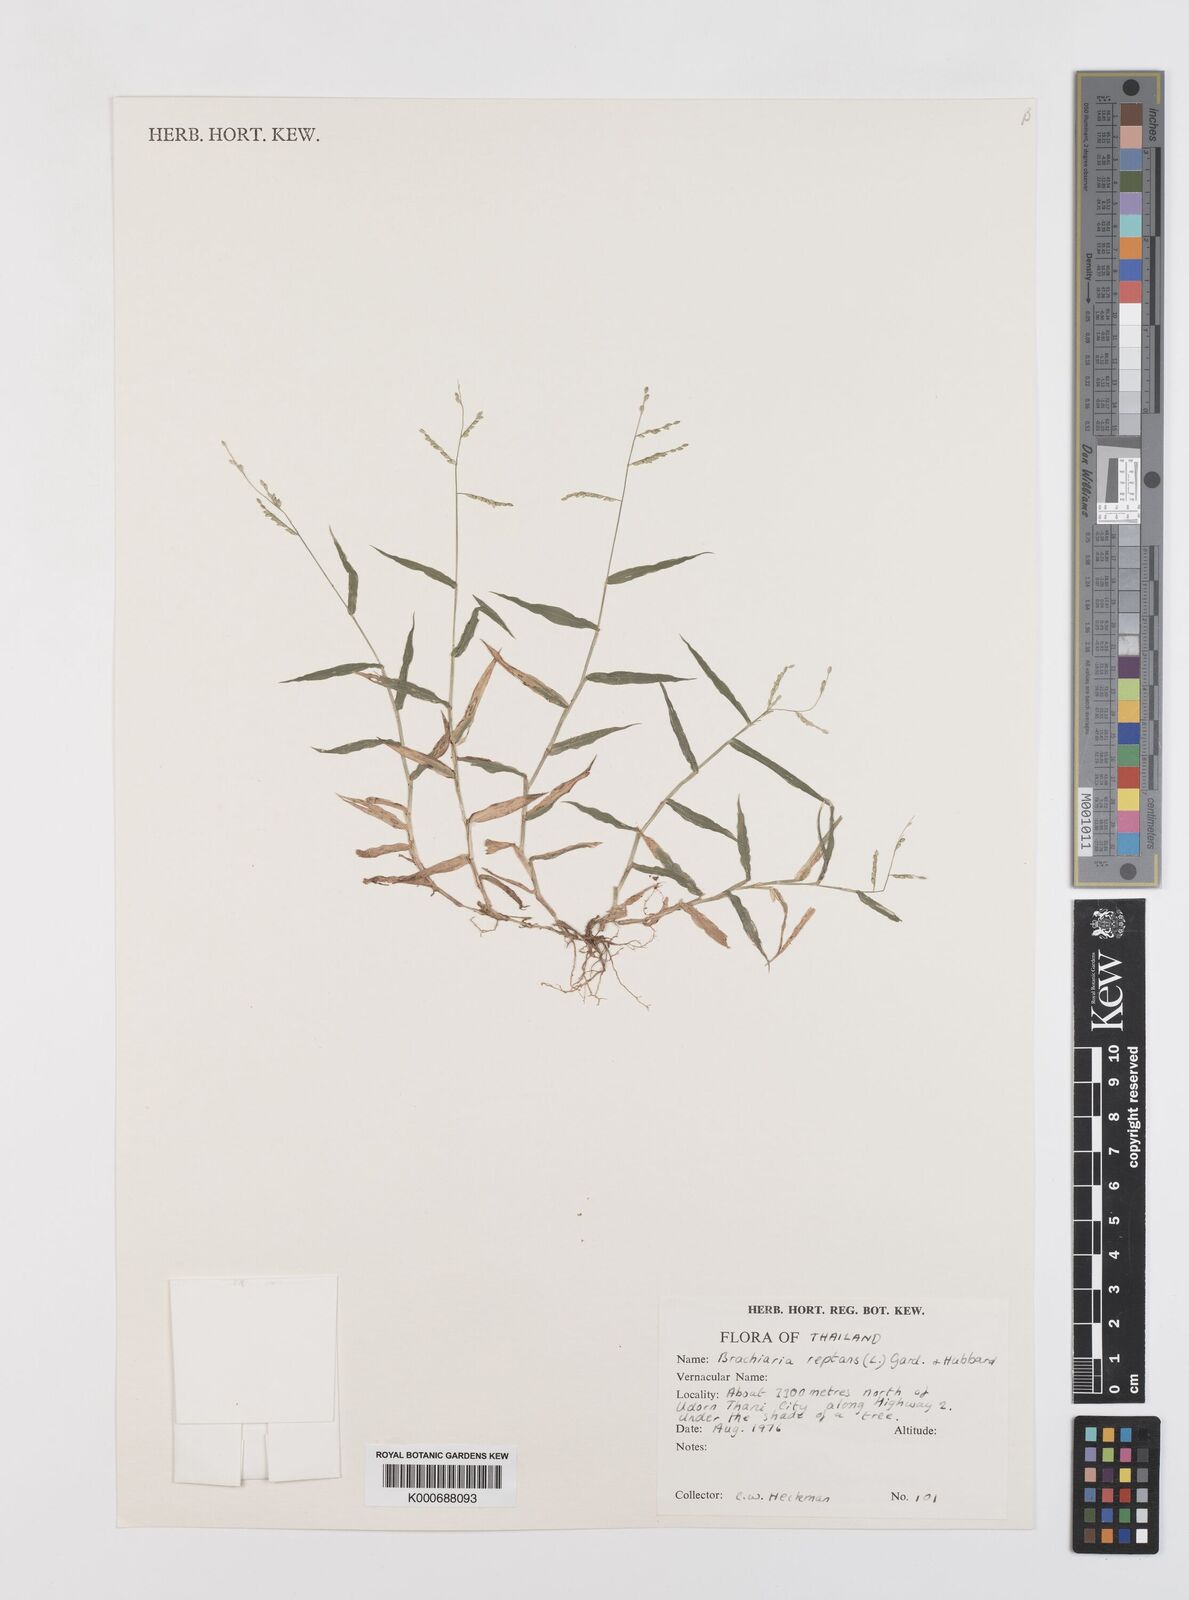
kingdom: Plantae
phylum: Tracheophyta
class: Liliopsida
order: Poales
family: Poaceae
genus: Urochloa
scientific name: Urochloa reptans
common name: Sprawling signalgrass
